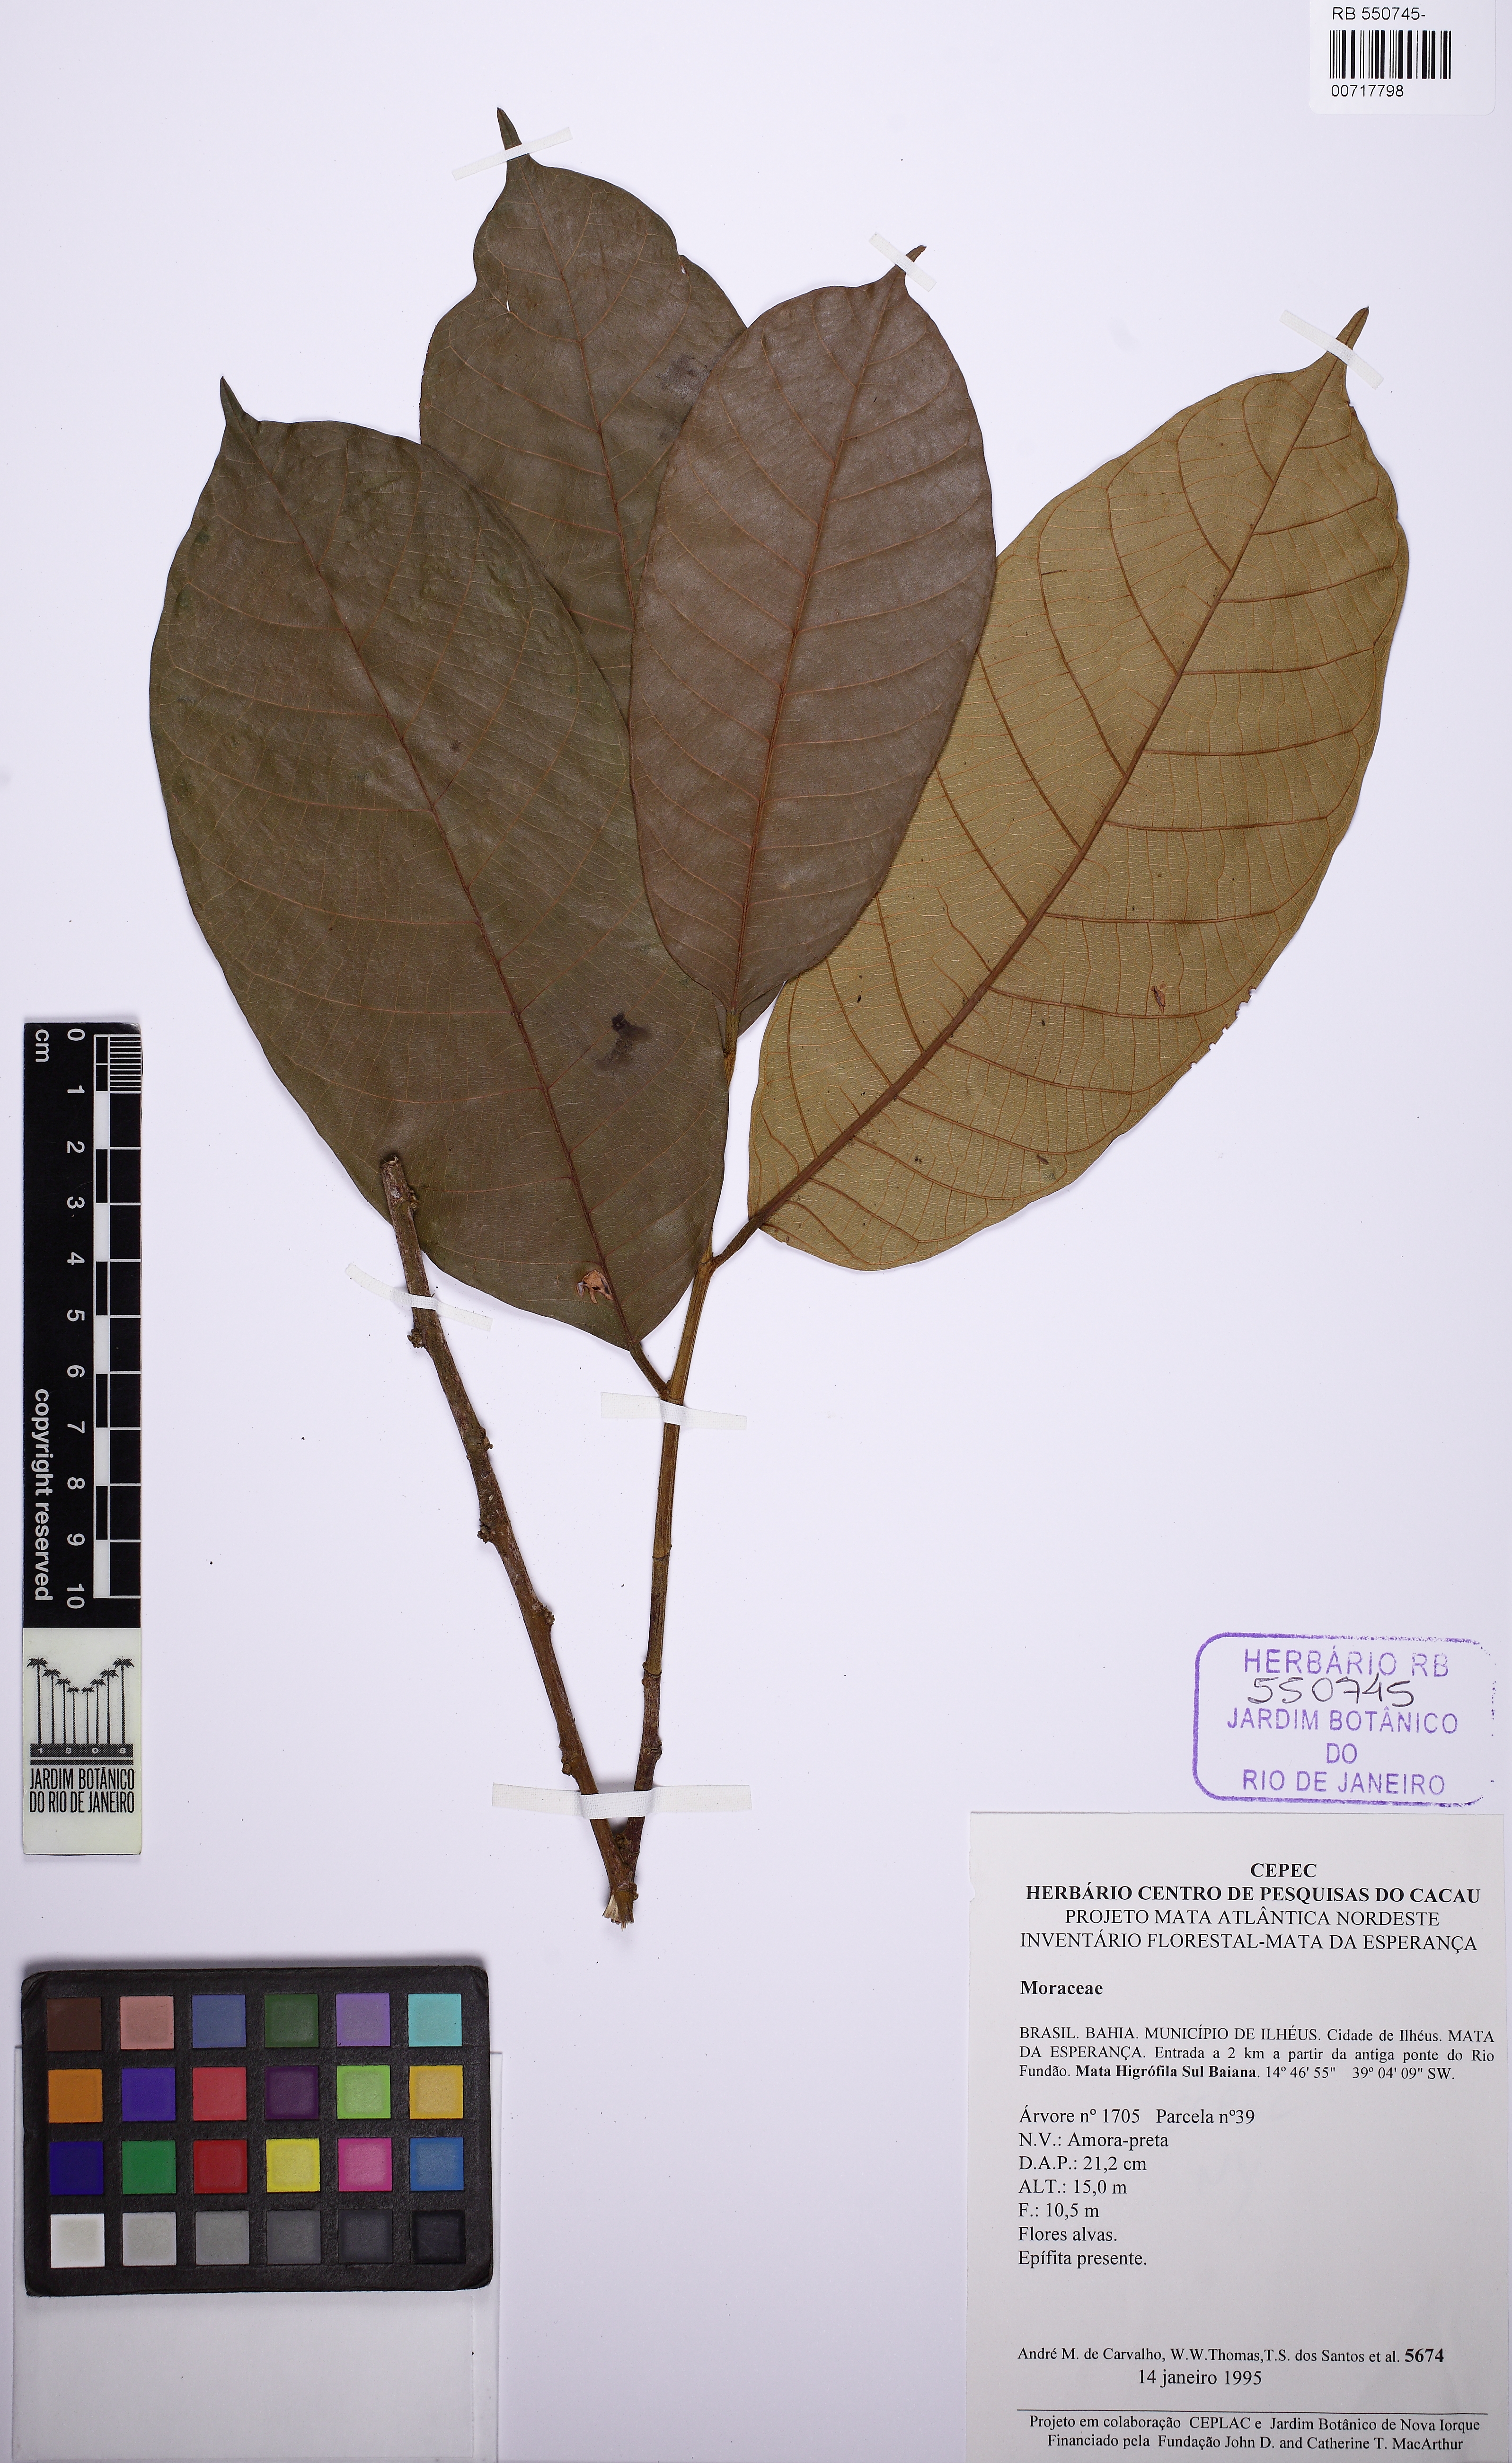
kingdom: Plantae
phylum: Tracheophyta
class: Magnoliopsida
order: Rosales
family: Moraceae
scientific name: Moraceae
